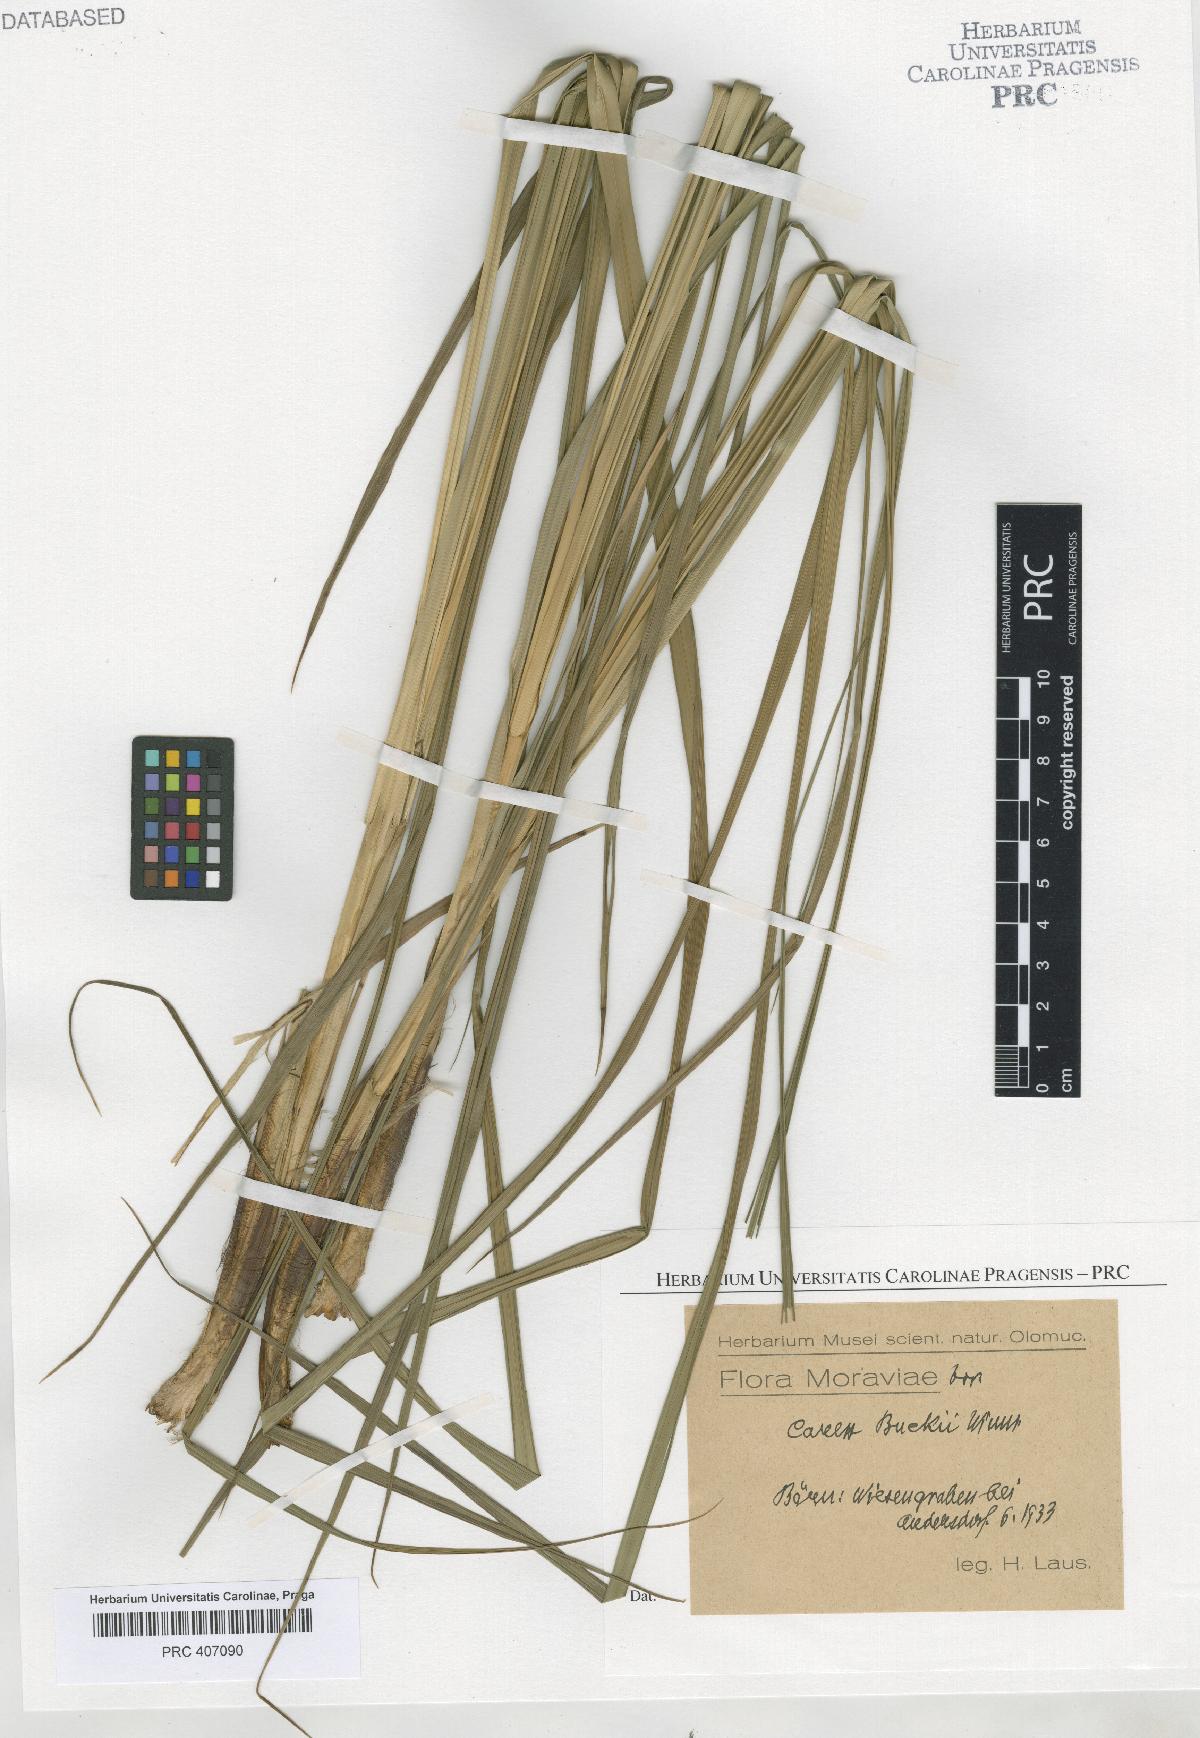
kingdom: Plantae
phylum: Tracheophyta
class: Liliopsida
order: Poales
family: Cyperaceae
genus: Carex
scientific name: Carex buekii
